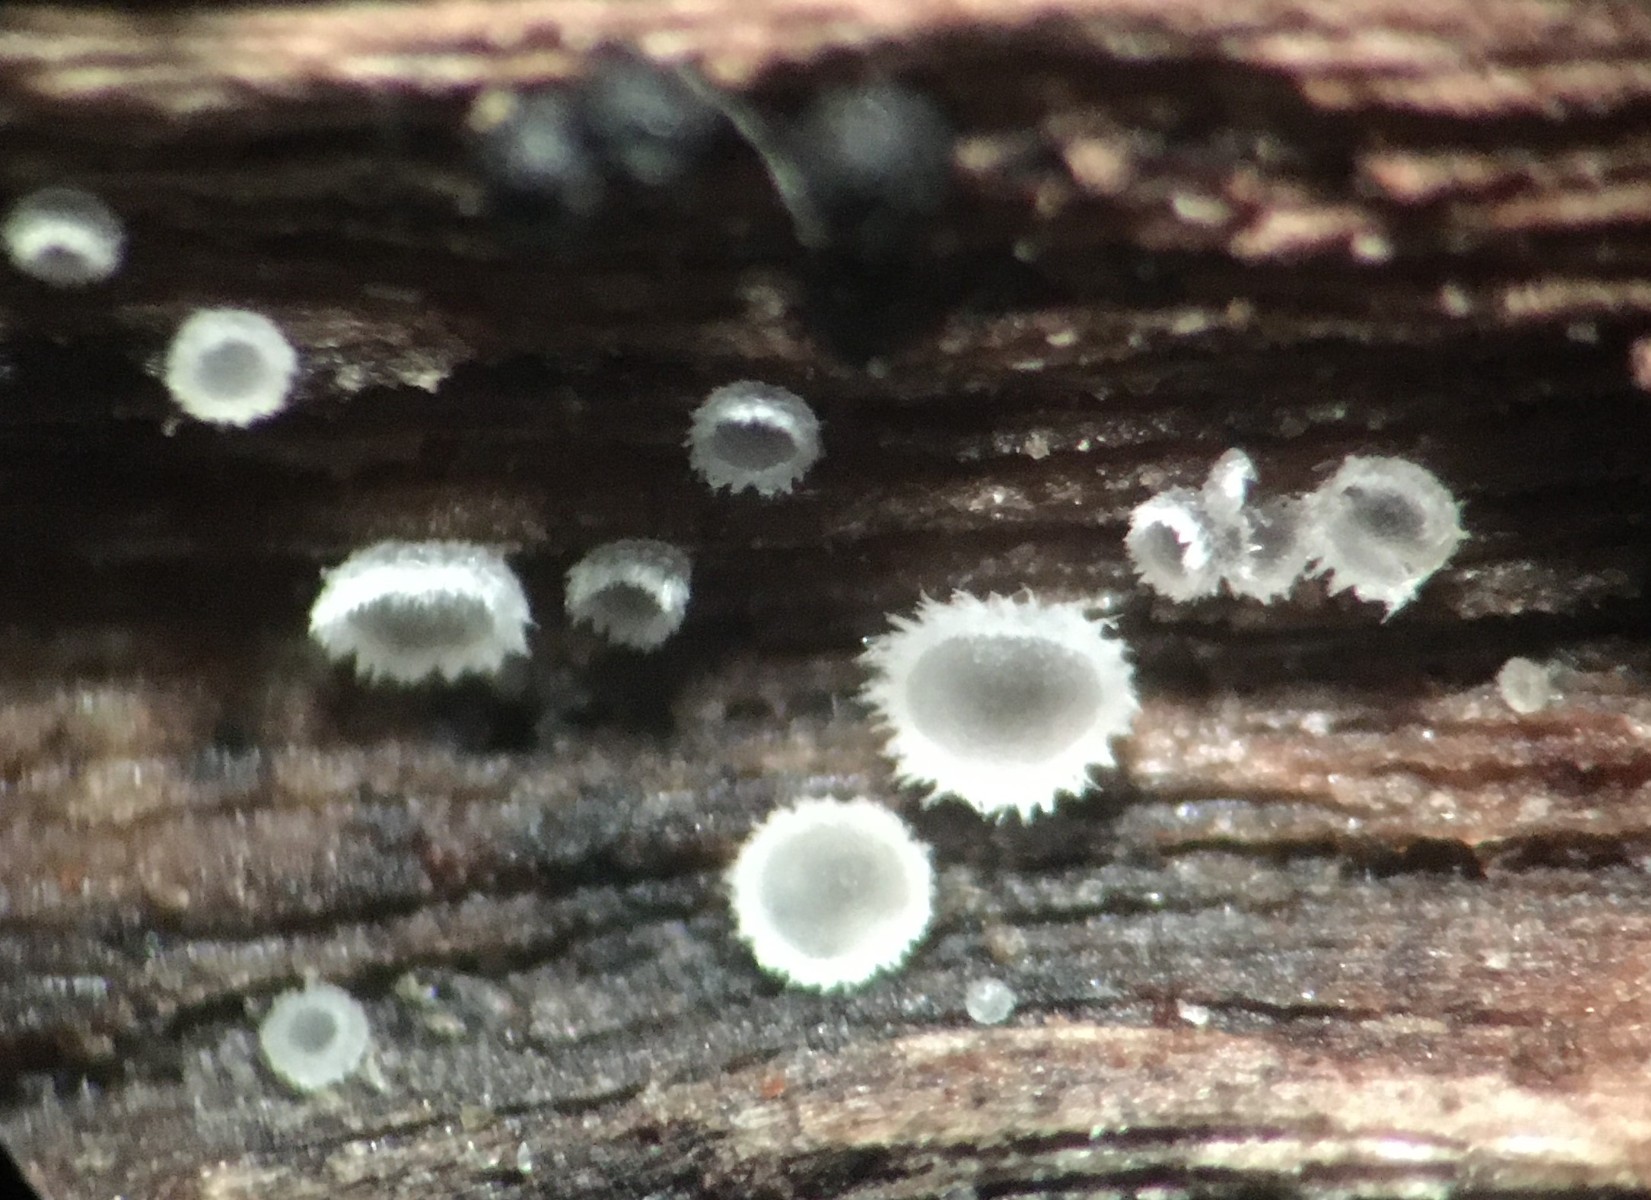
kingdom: Fungi
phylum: Ascomycota
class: Leotiomycetes
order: Helotiales
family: Hyaloscyphaceae
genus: Hyaloscypha
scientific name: Hyaloscypha leuconica
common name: langhåret klarskive
